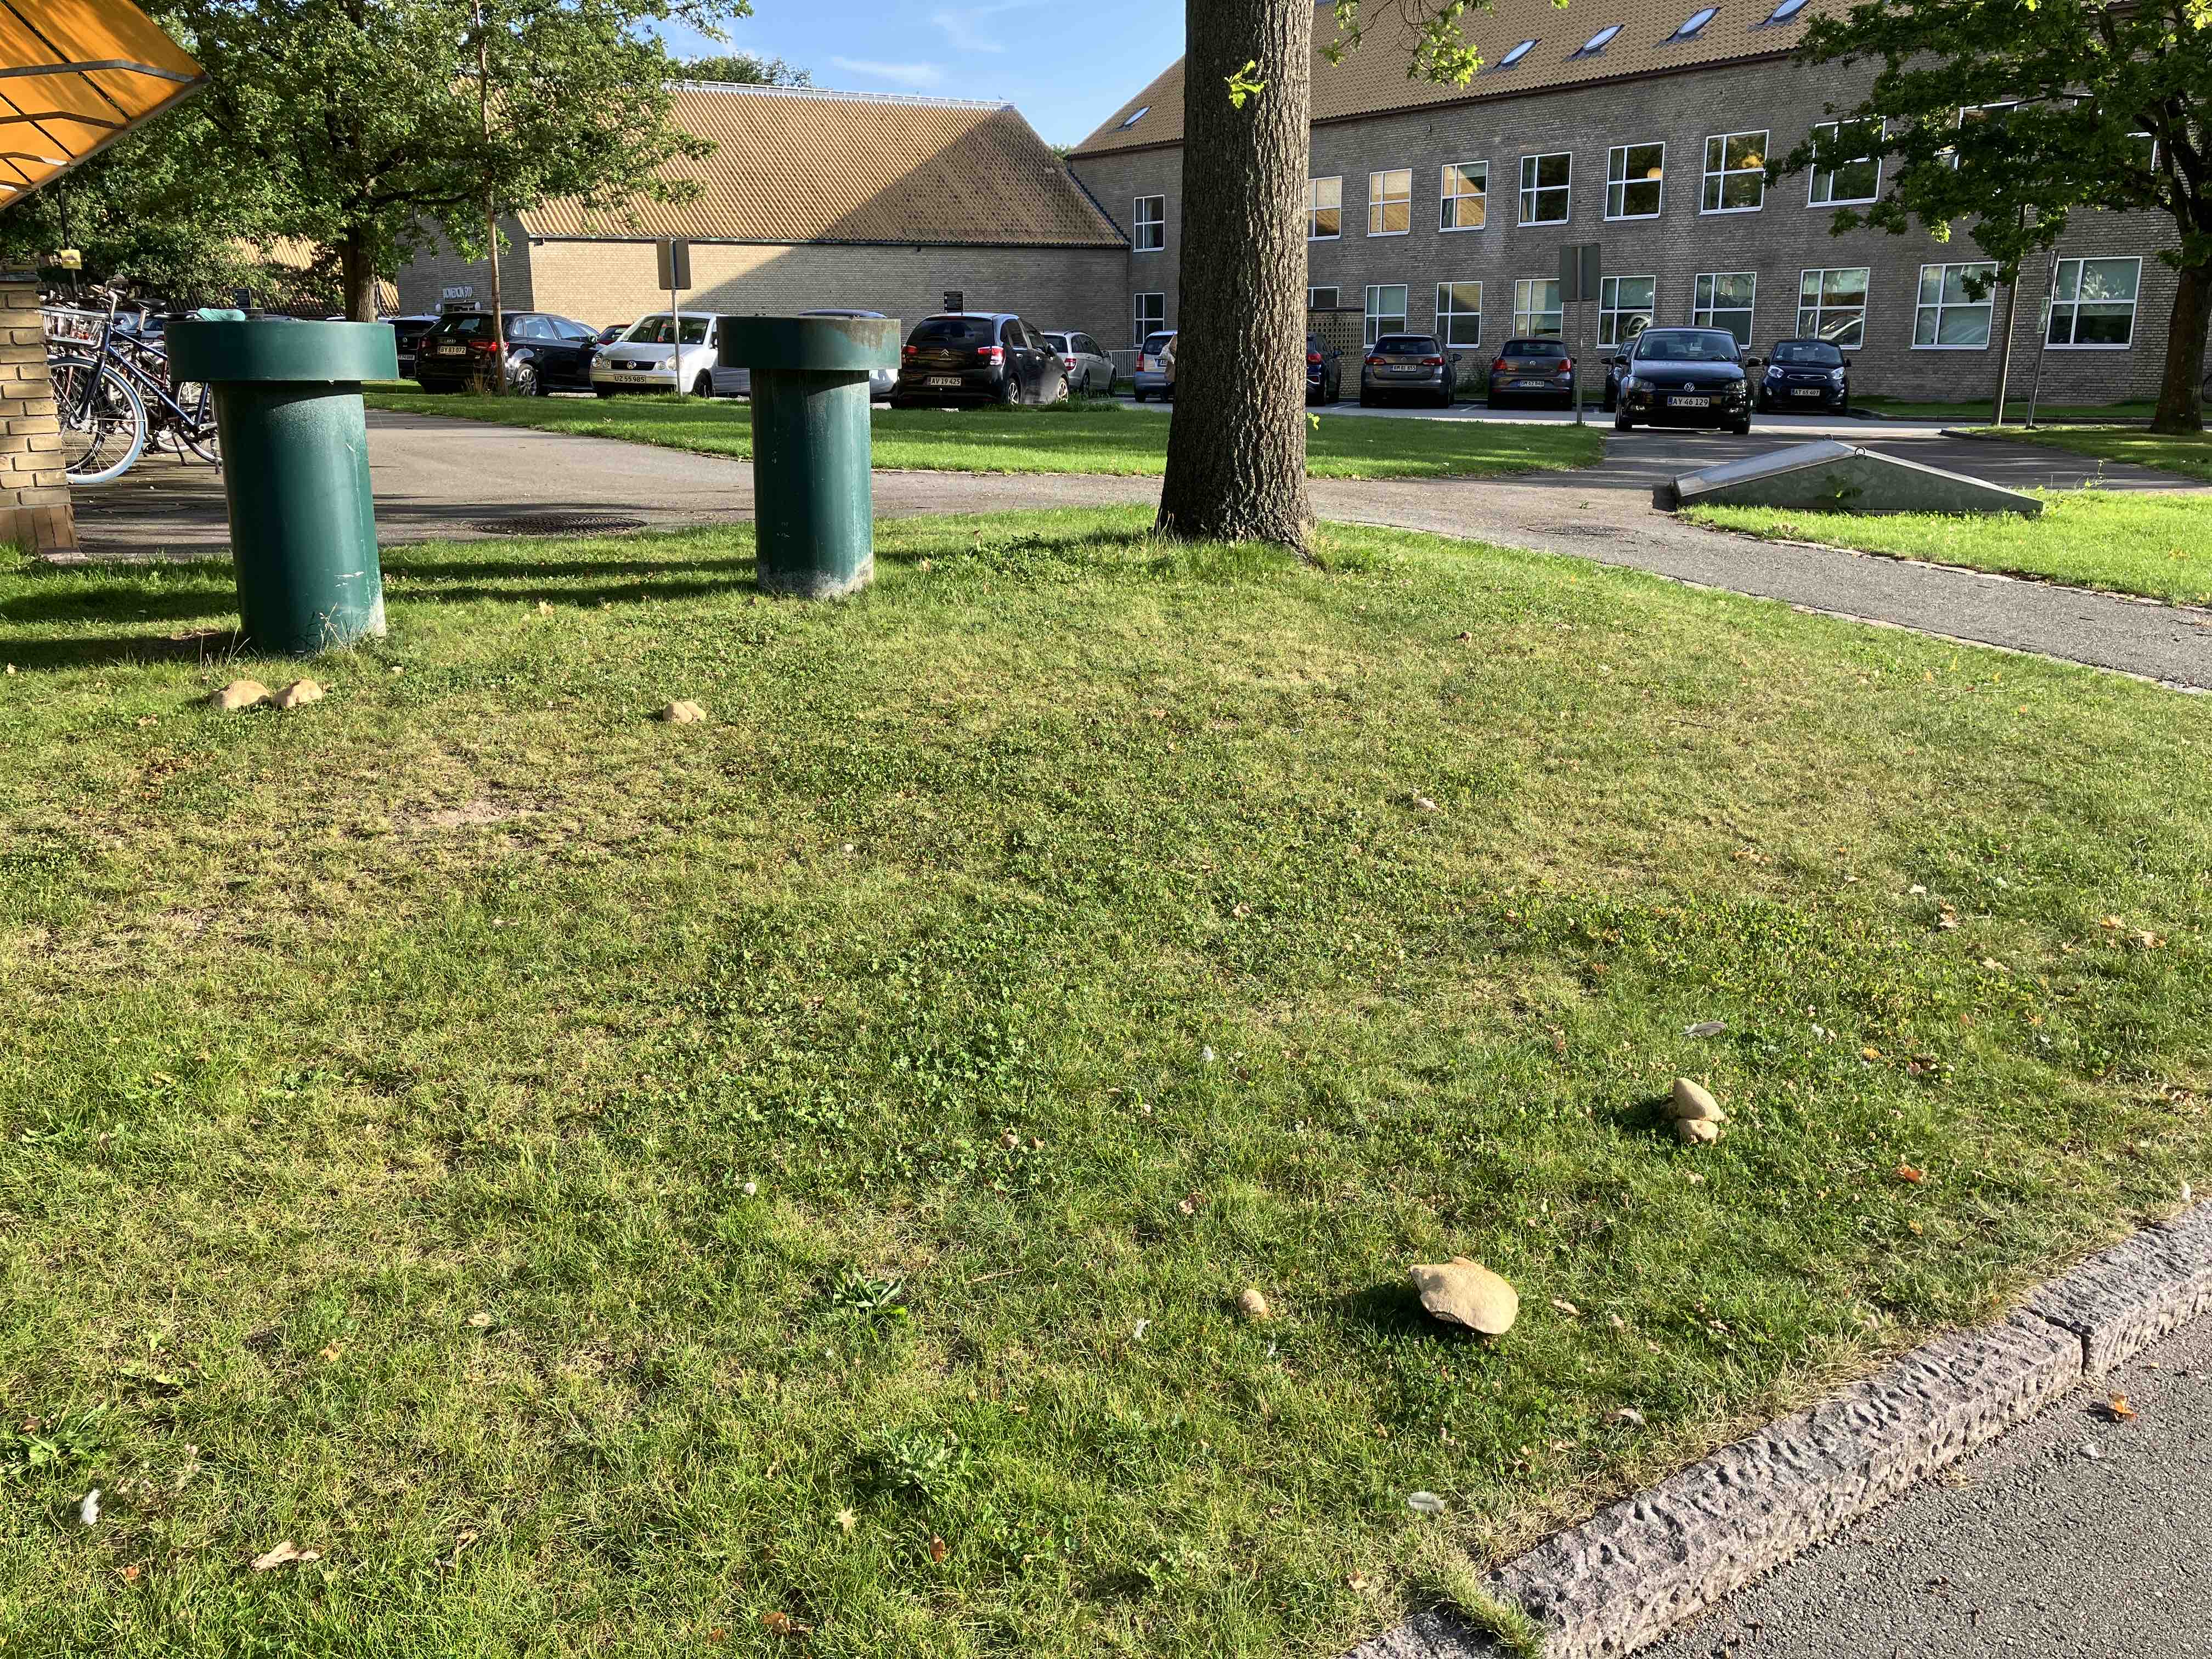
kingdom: Fungi
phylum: Basidiomycota
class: Agaricomycetes
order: Boletales
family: Boletaceae
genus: Caloboletus
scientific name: Caloboletus radicans
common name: rod-rørhat
